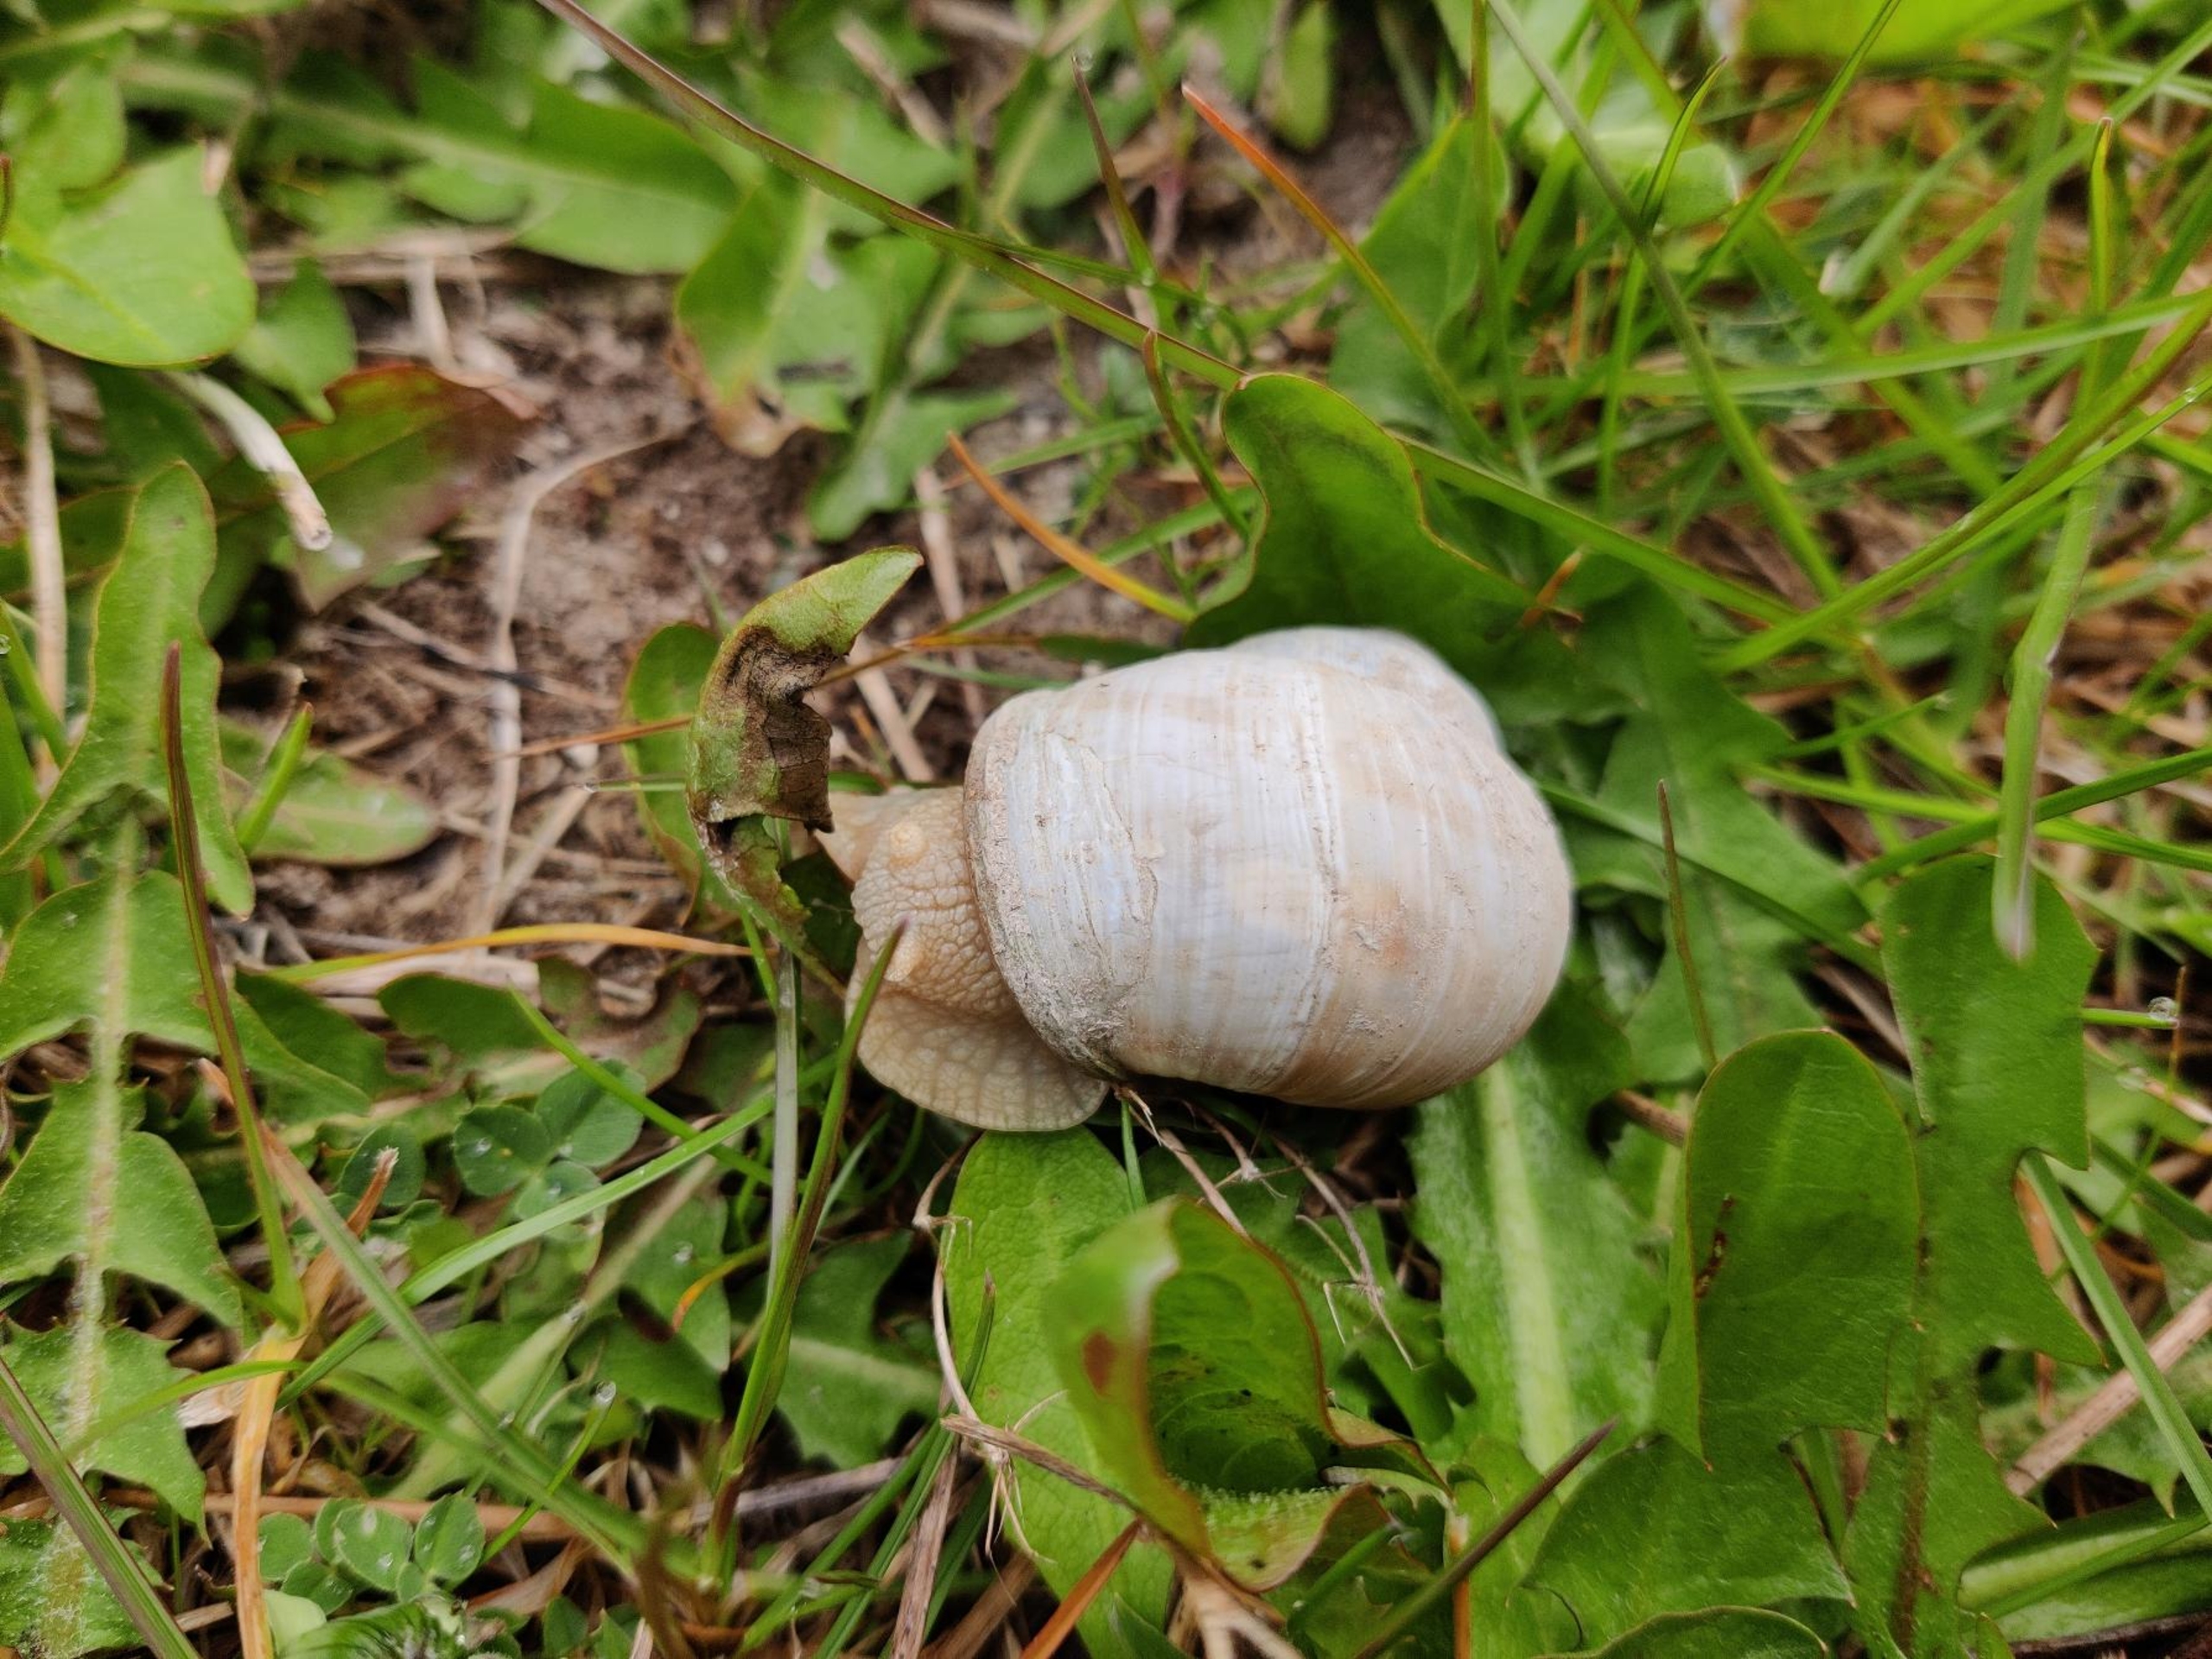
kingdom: Animalia
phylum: Mollusca
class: Gastropoda
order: Stylommatophora
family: Helicidae
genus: Helix
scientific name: Helix pomatia
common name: Vinbjergsnegl
